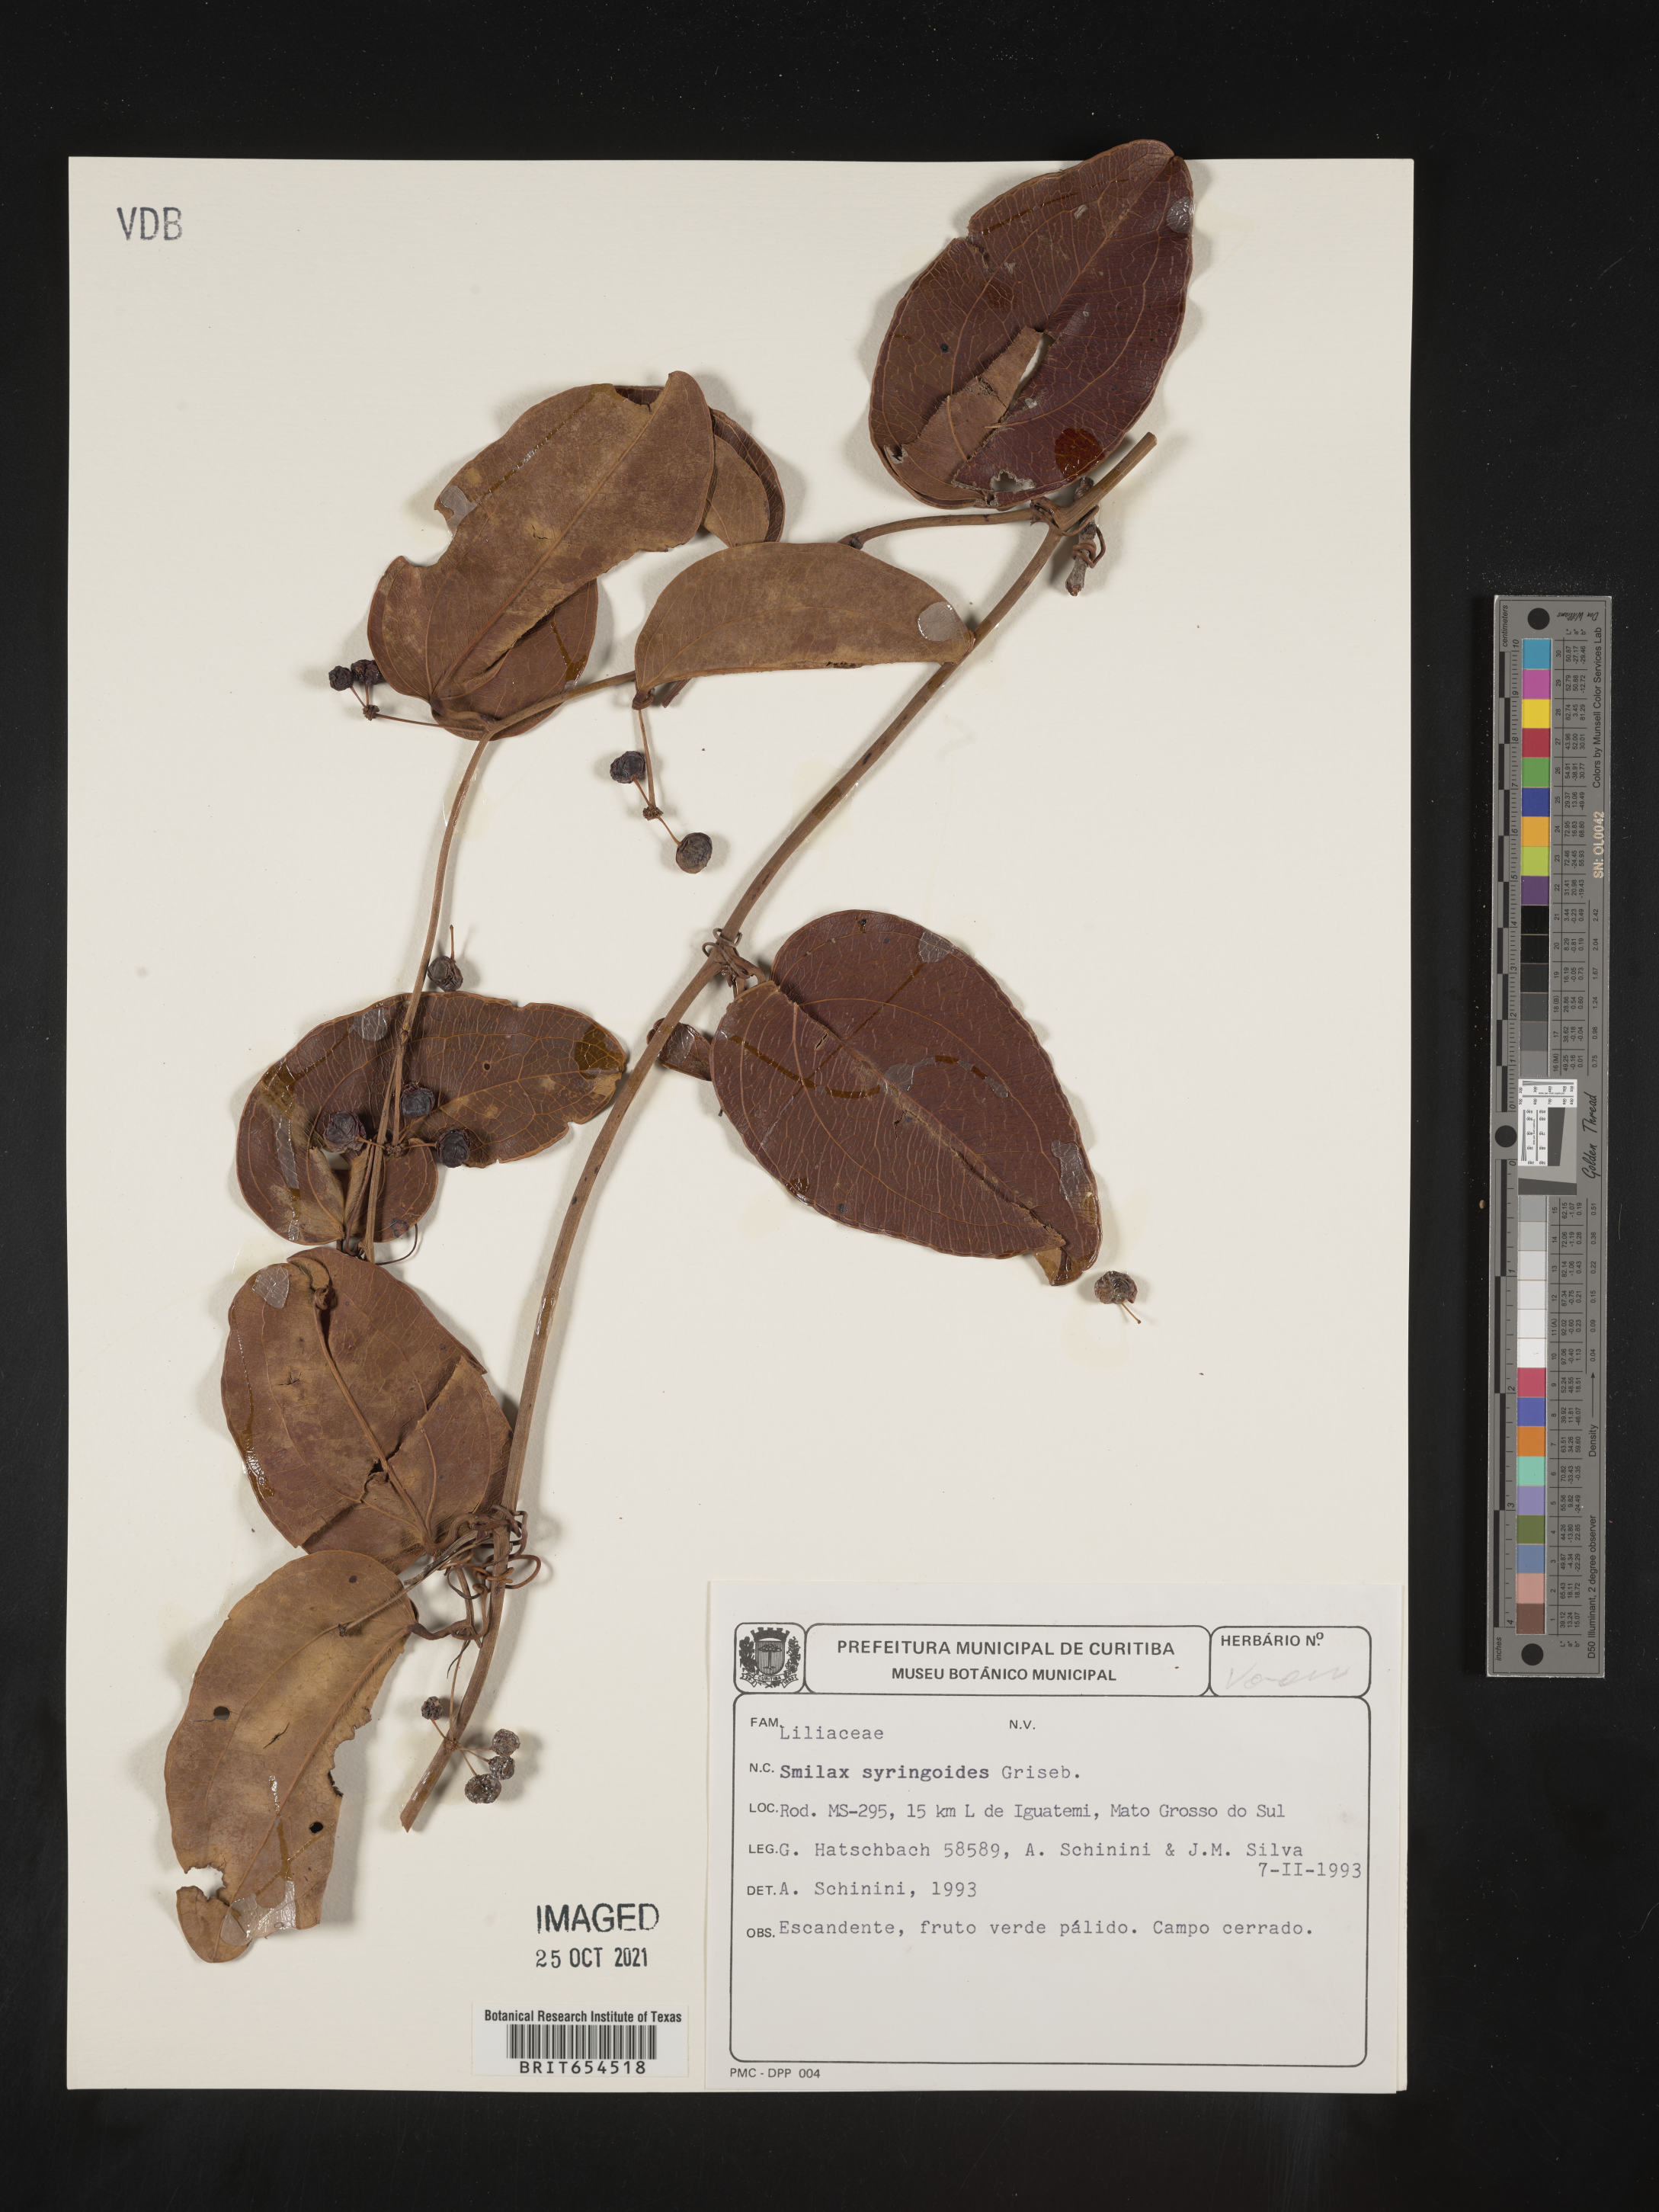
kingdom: Plantae
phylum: Tracheophyta
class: Liliopsida
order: Liliales
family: Smilacaceae
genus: Smilax
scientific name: Smilax
